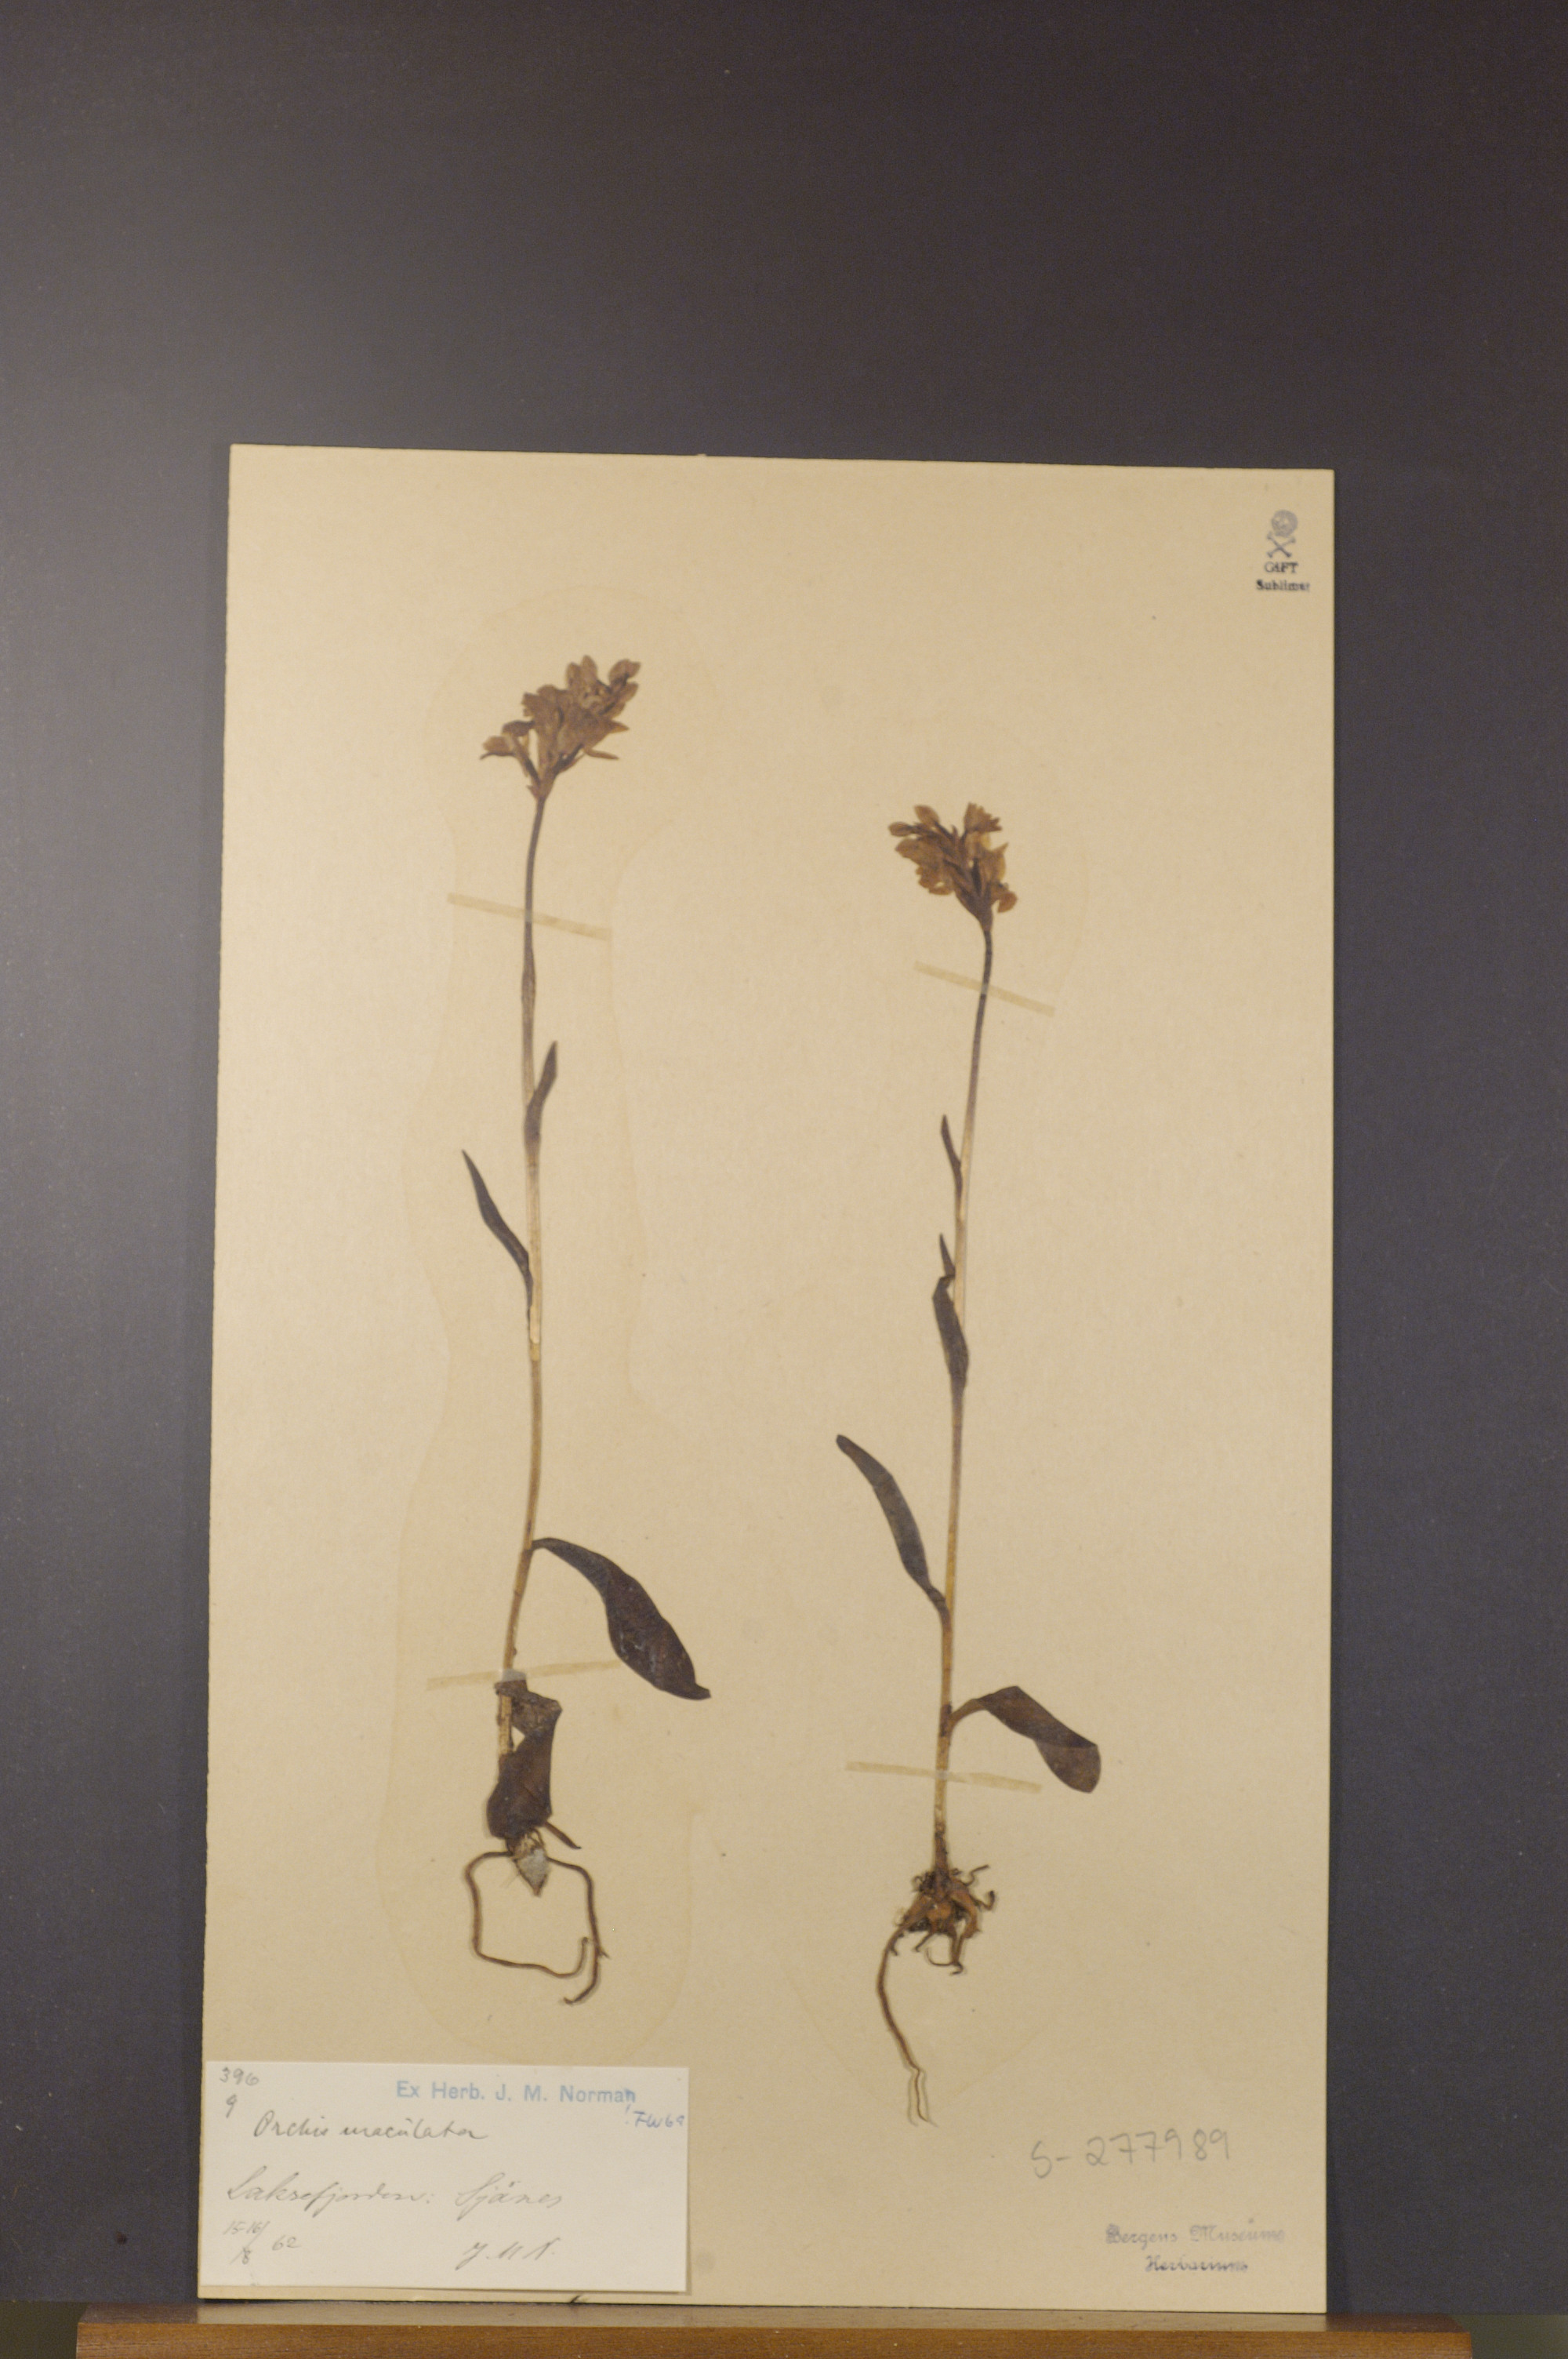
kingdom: Plantae
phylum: Tracheophyta
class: Liliopsida
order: Asparagales
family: Orchidaceae
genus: Dactylorhiza
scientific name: Dactylorhiza maculata
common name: Heath spotted-orchid
